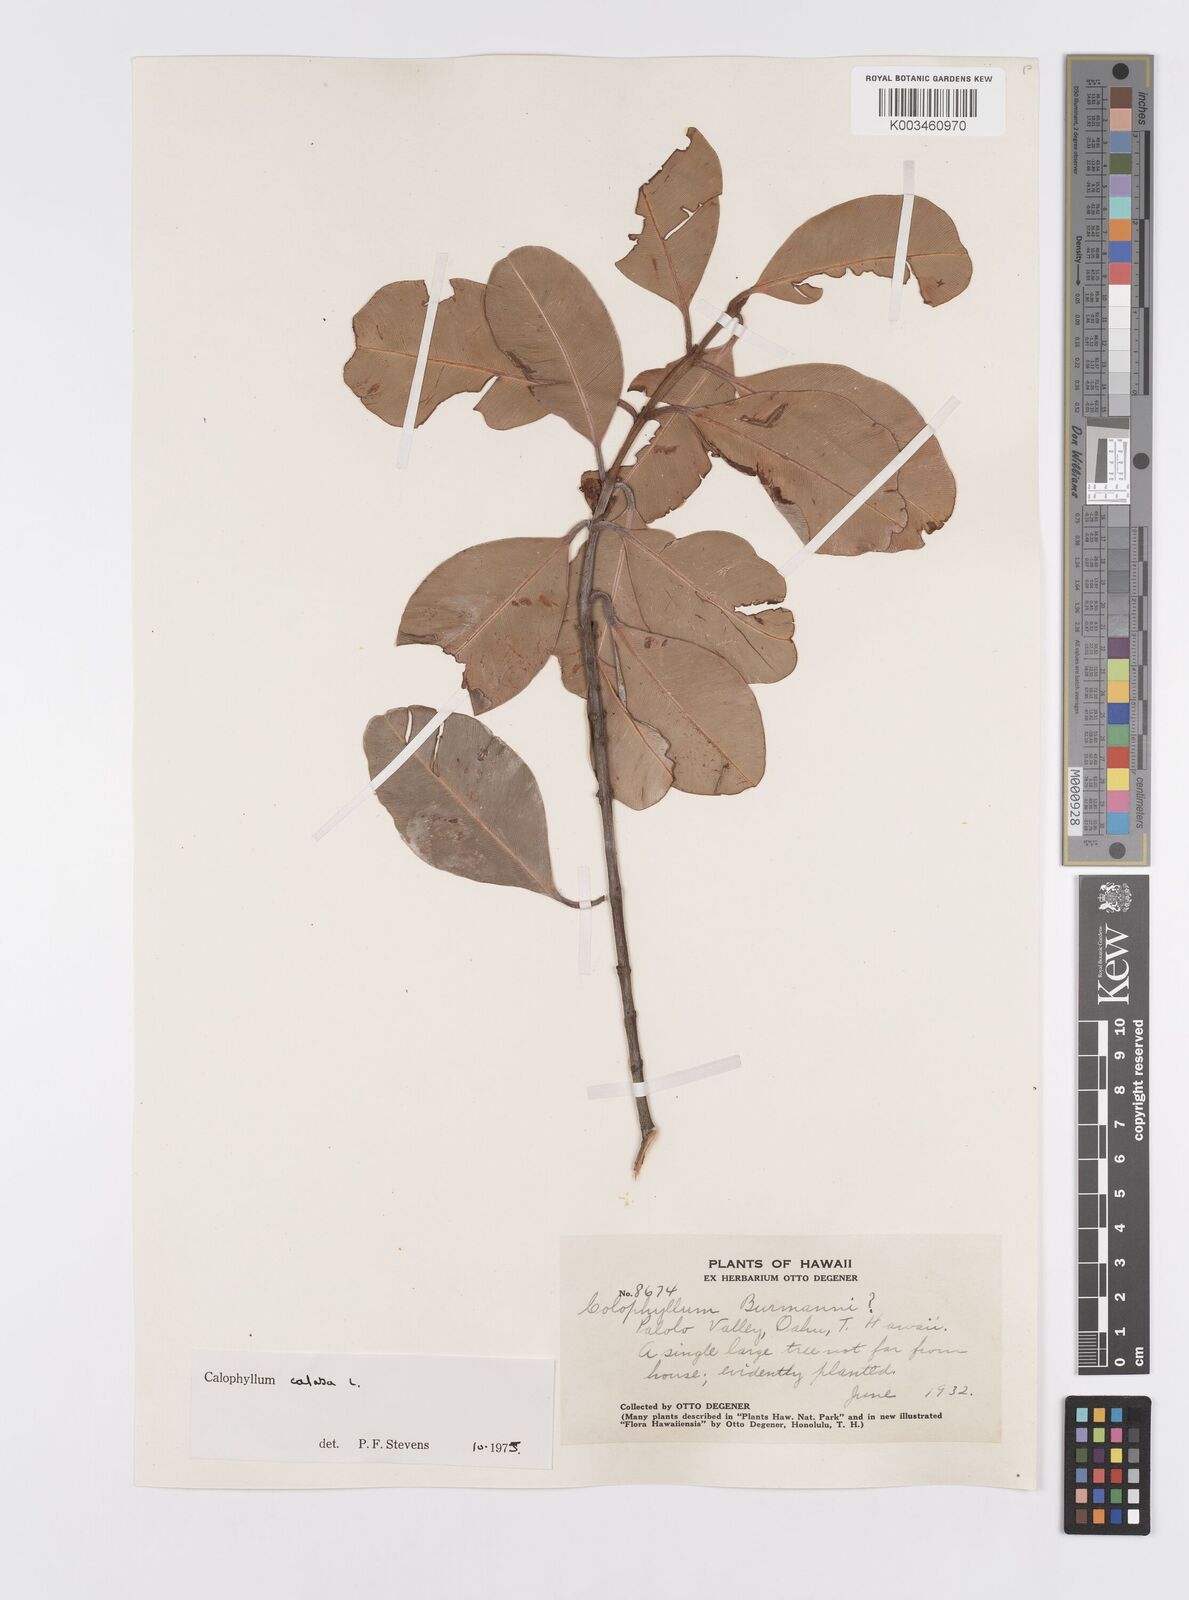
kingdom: Plantae
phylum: Tracheophyta
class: Magnoliopsida
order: Malpighiales
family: Calophyllaceae
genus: Calophyllum
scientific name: Calophyllum calaba
